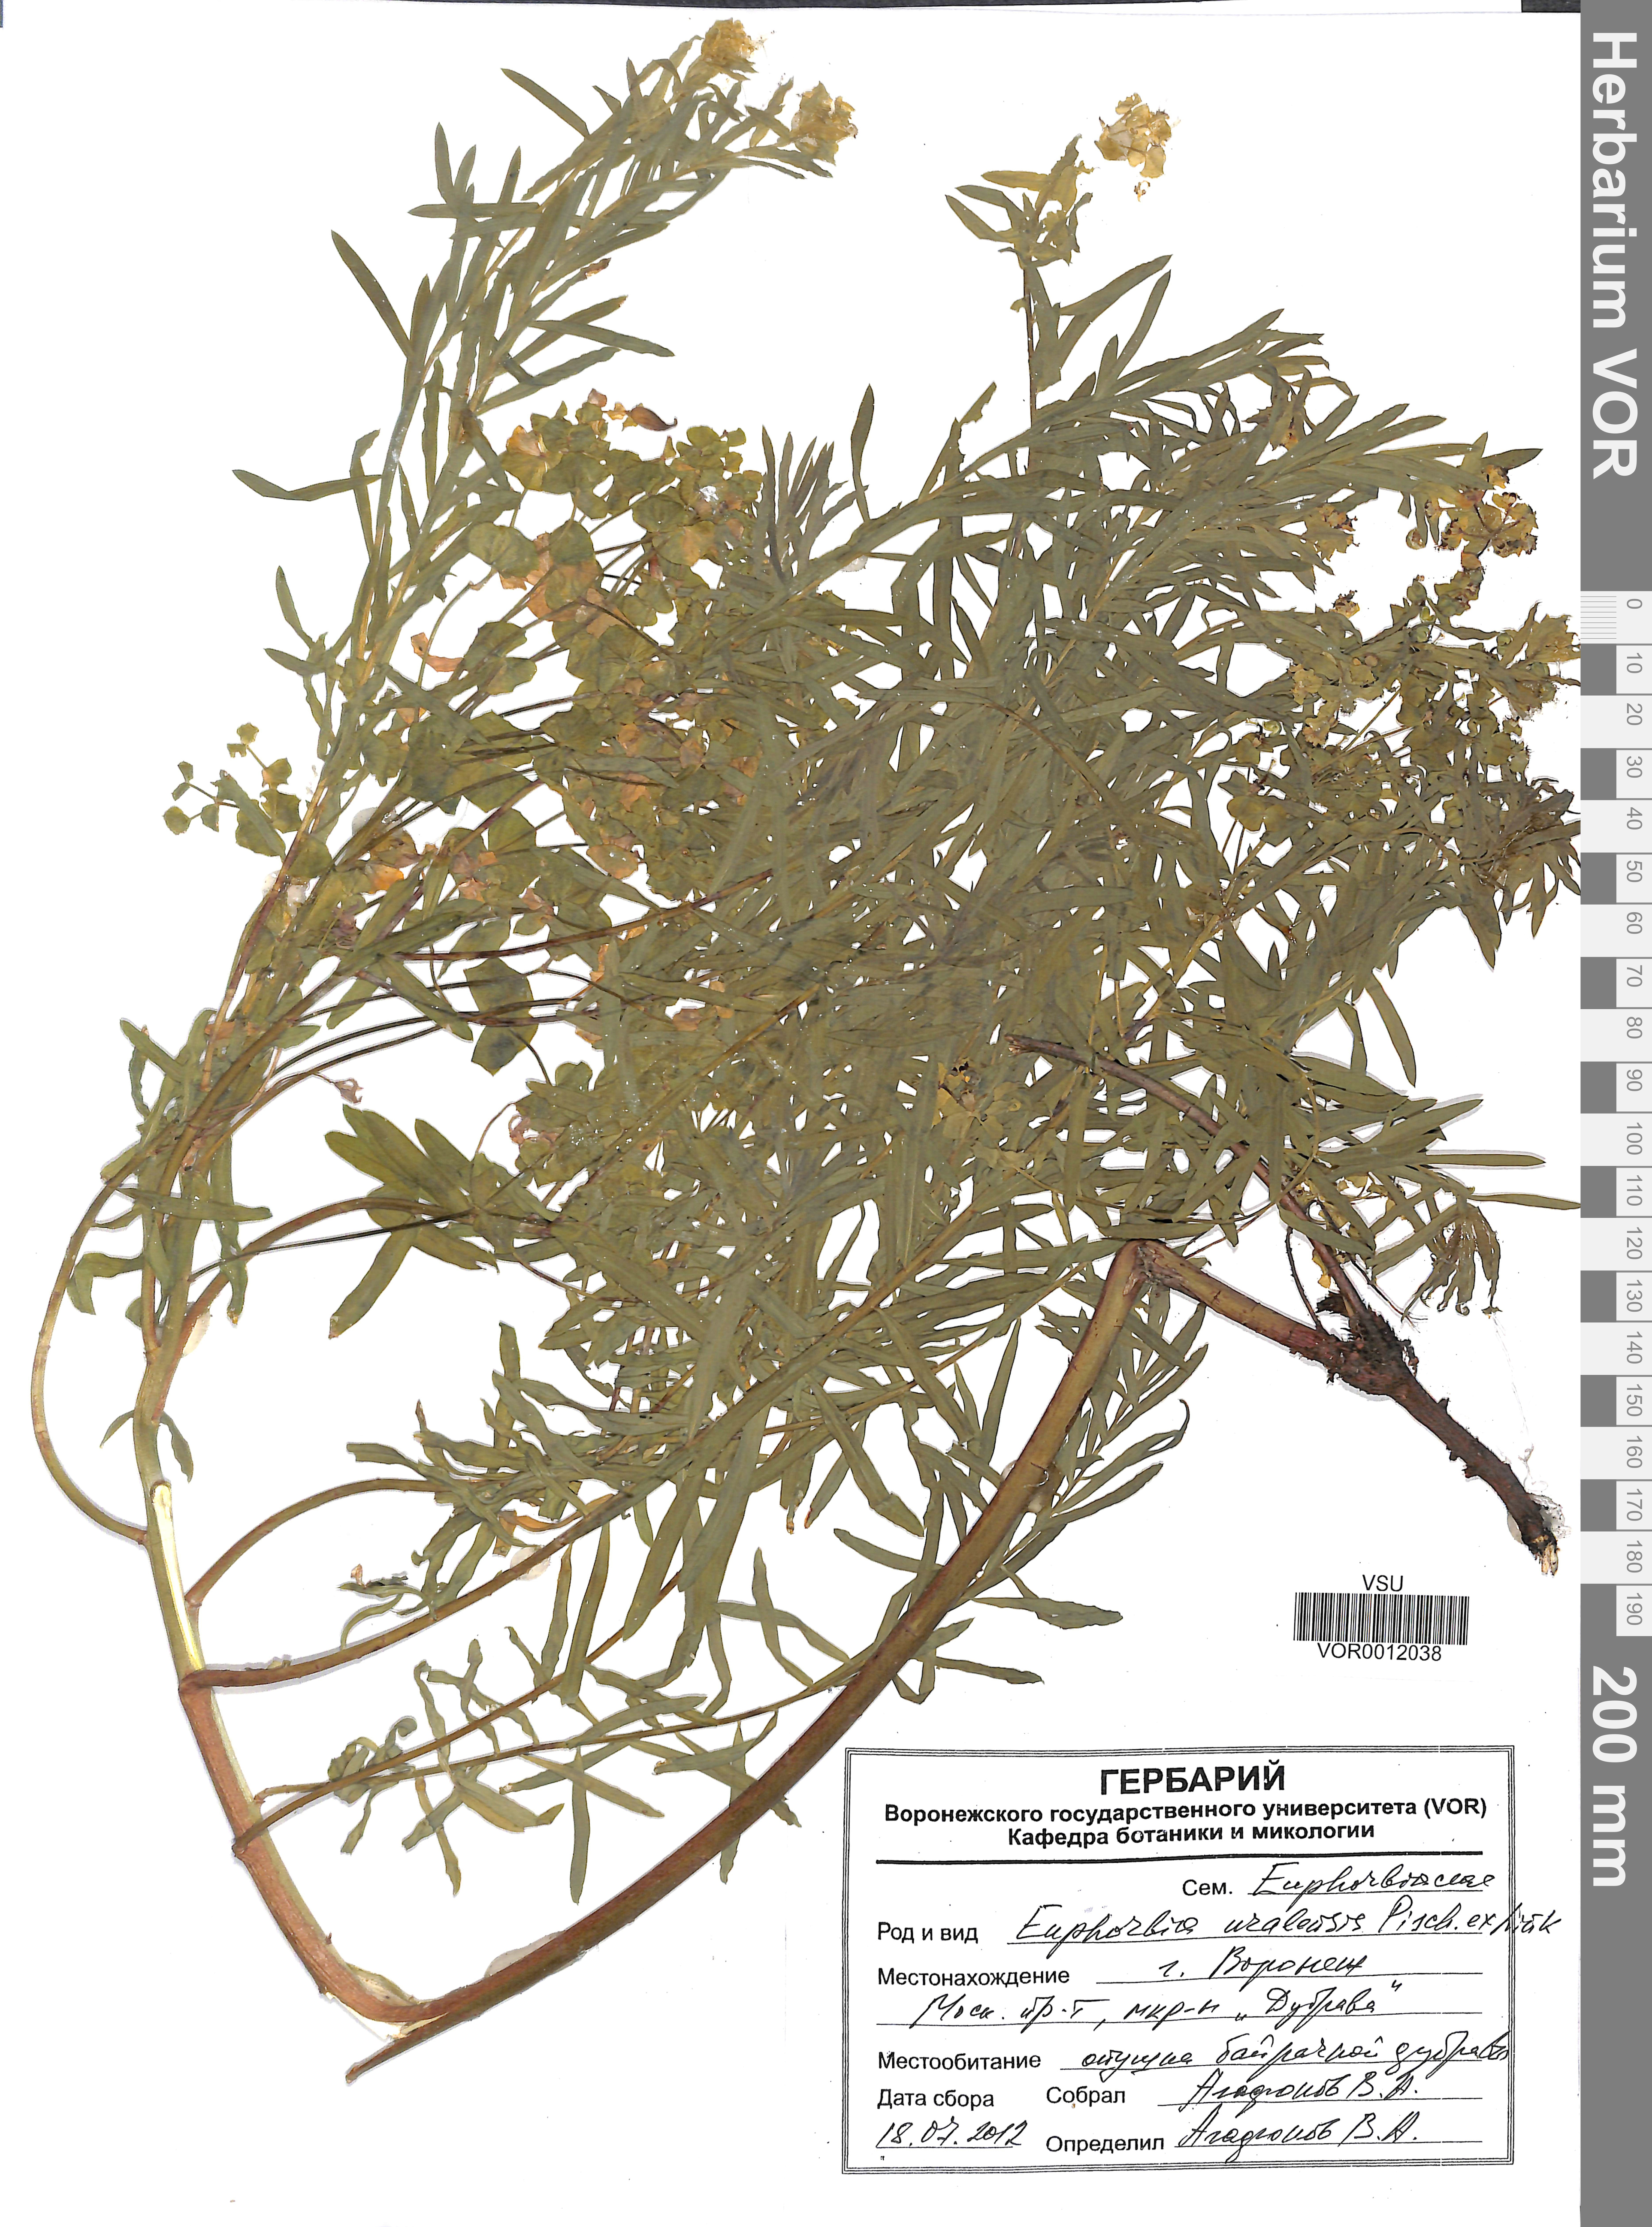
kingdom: Plantae
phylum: Tracheophyta
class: Magnoliopsida
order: Malpighiales
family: Euphorbiaceae
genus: Euphorbia
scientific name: Euphorbia uralensis
